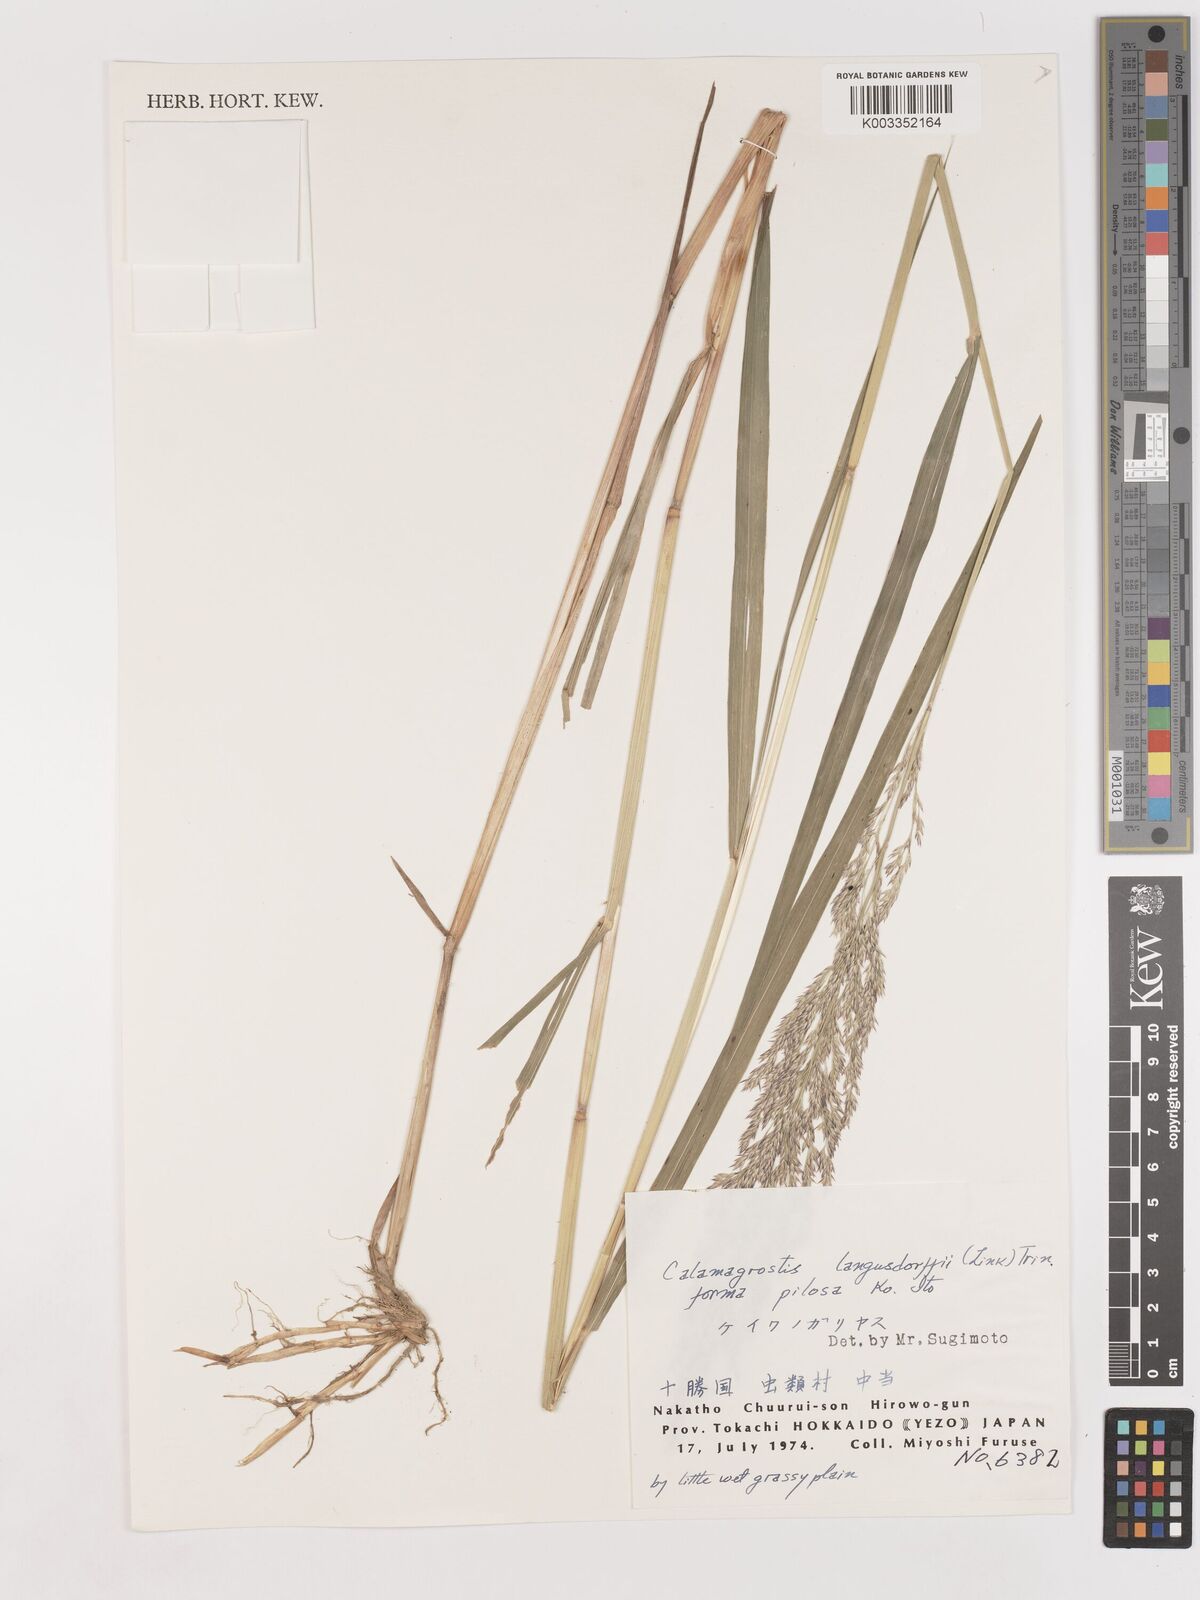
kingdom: Plantae
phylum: Tracheophyta
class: Liliopsida
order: Poales
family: Poaceae
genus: Calamagrostis
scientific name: Calamagrostis purpurea
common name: Scandinavian small-reed
